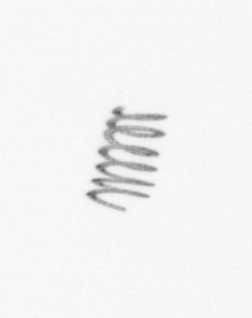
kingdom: Chromista
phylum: Ochrophyta
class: Bacillariophyceae
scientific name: Bacillariophyceae
